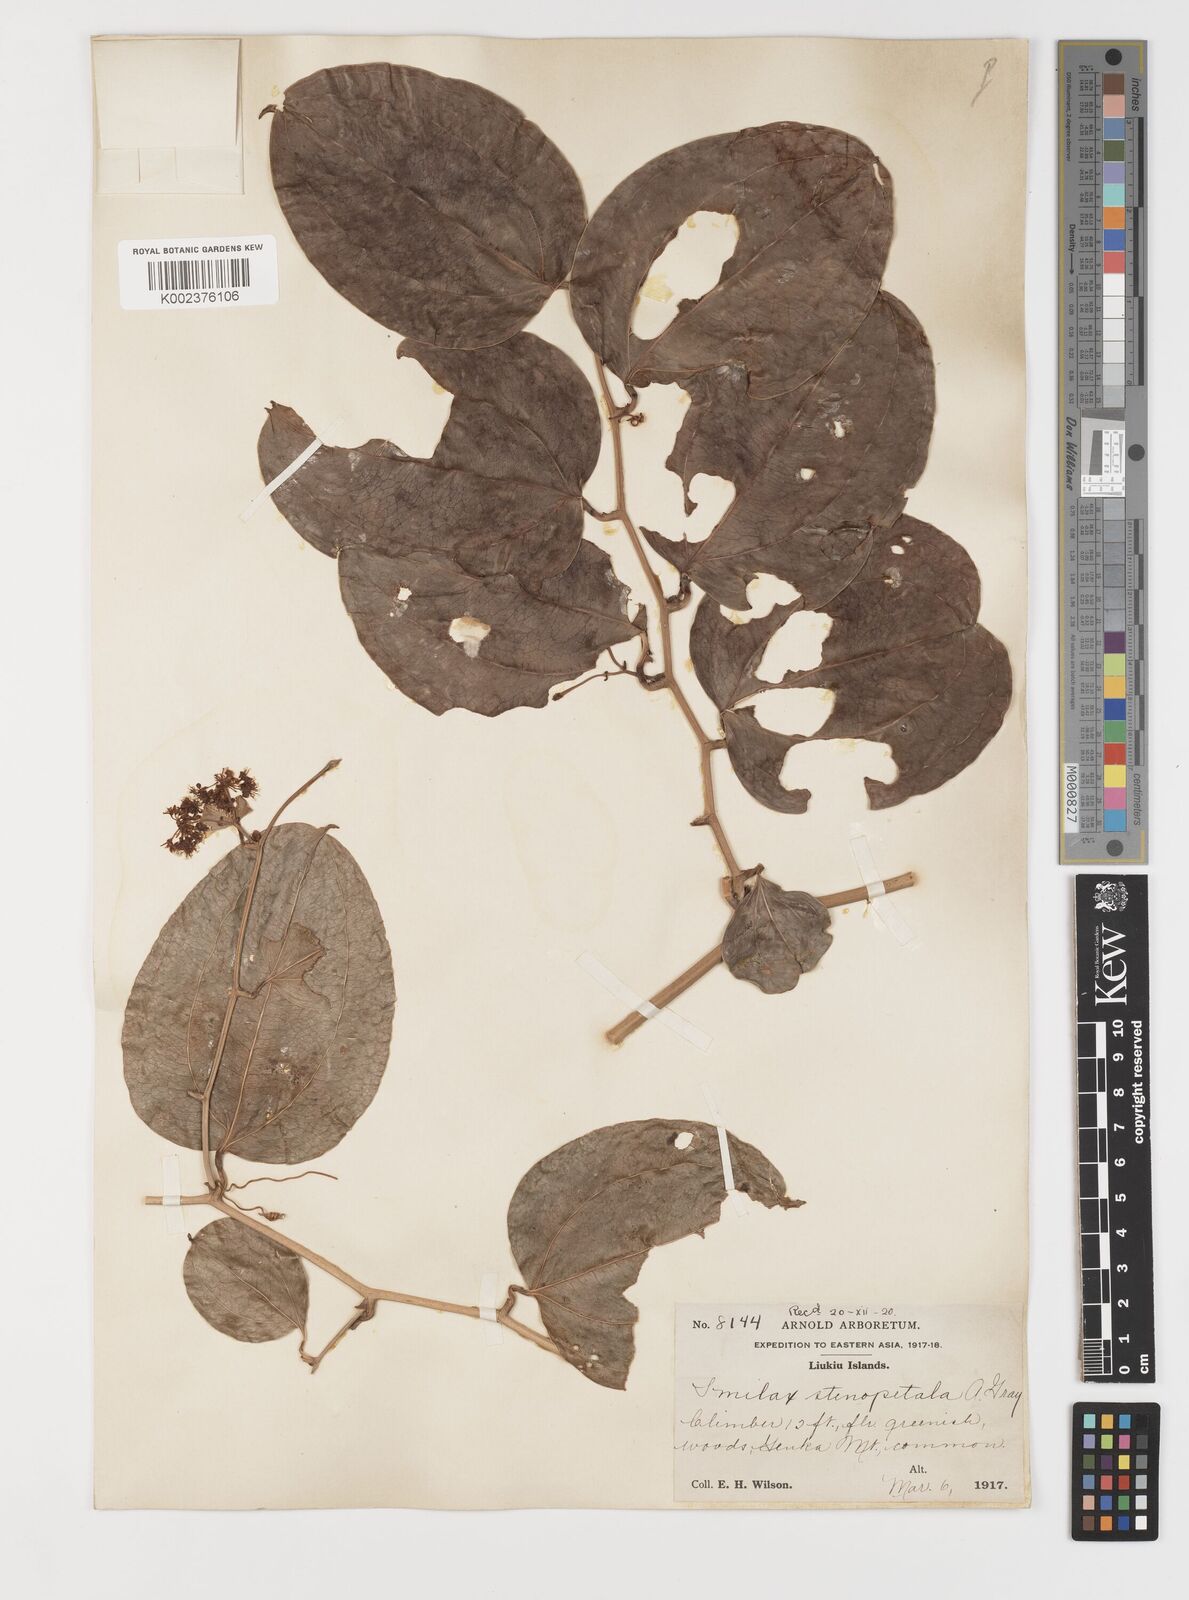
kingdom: Plantae
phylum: Tracheophyta
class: Liliopsida
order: Liliales
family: Smilacaceae
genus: Smilax
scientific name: Smilax bracteata
